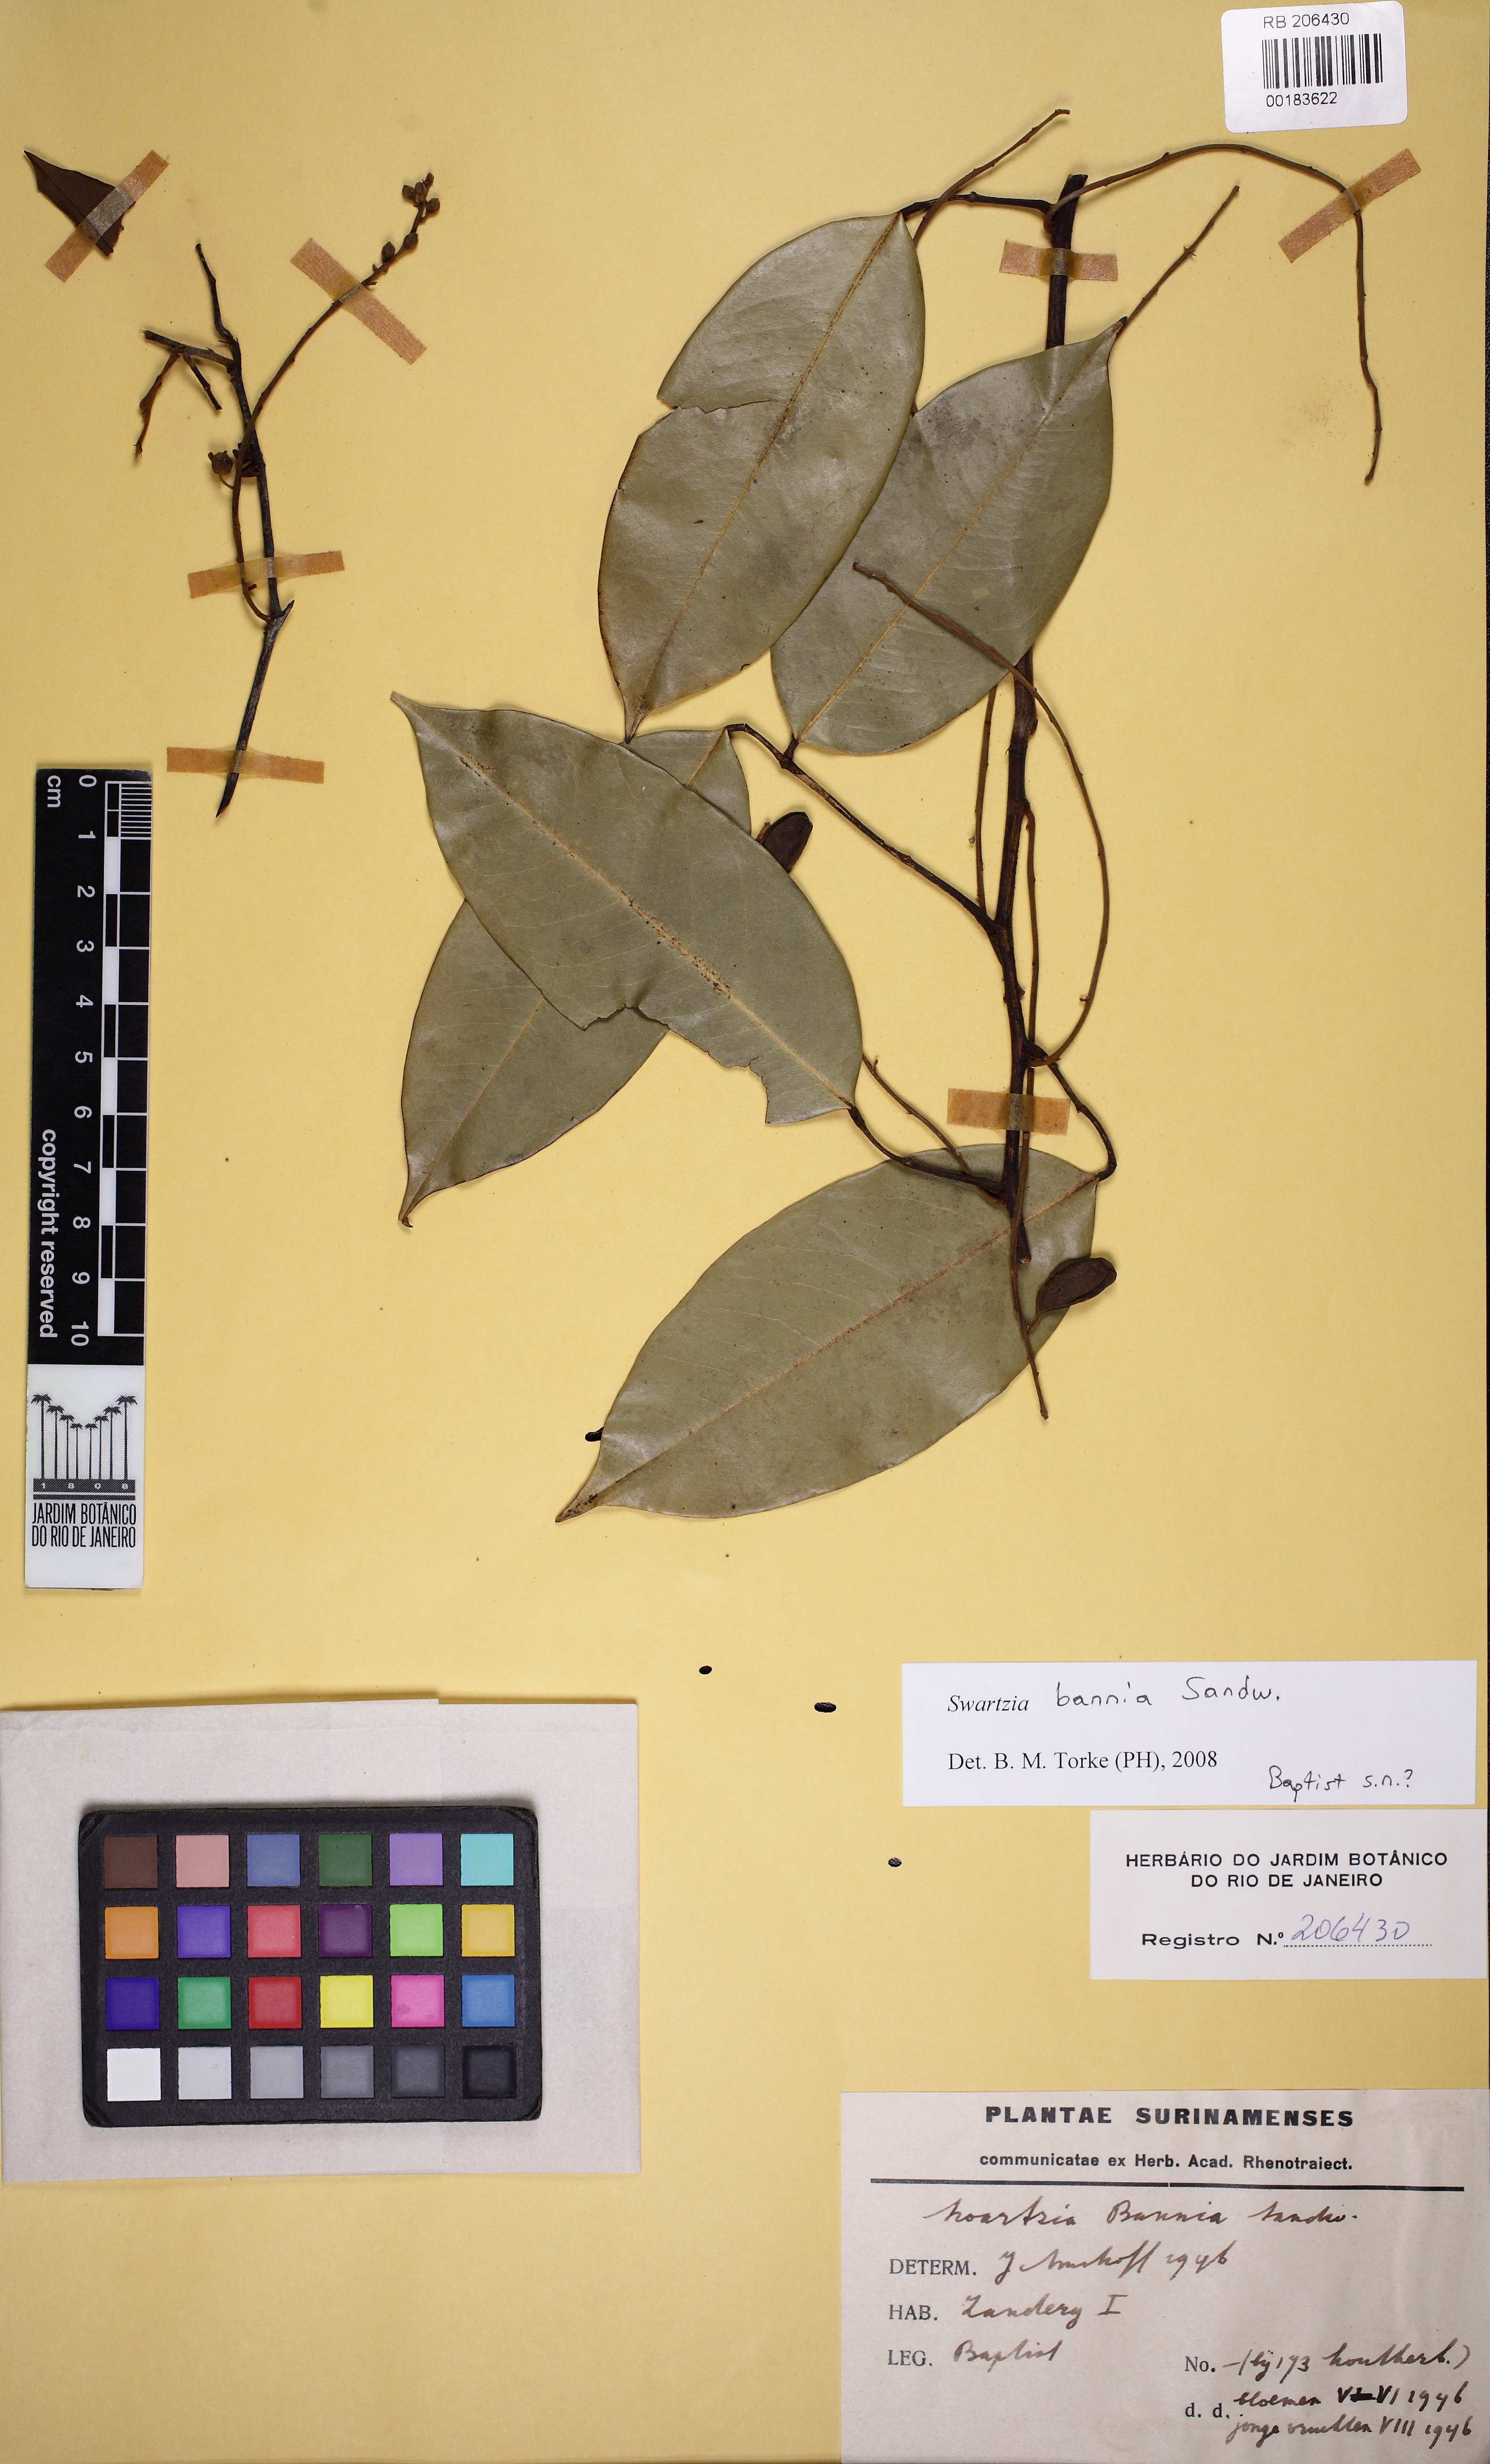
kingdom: Plantae
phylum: Tracheophyta
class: Magnoliopsida
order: Fabales
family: Fabaceae
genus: Swartzia
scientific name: Swartzia bannia
